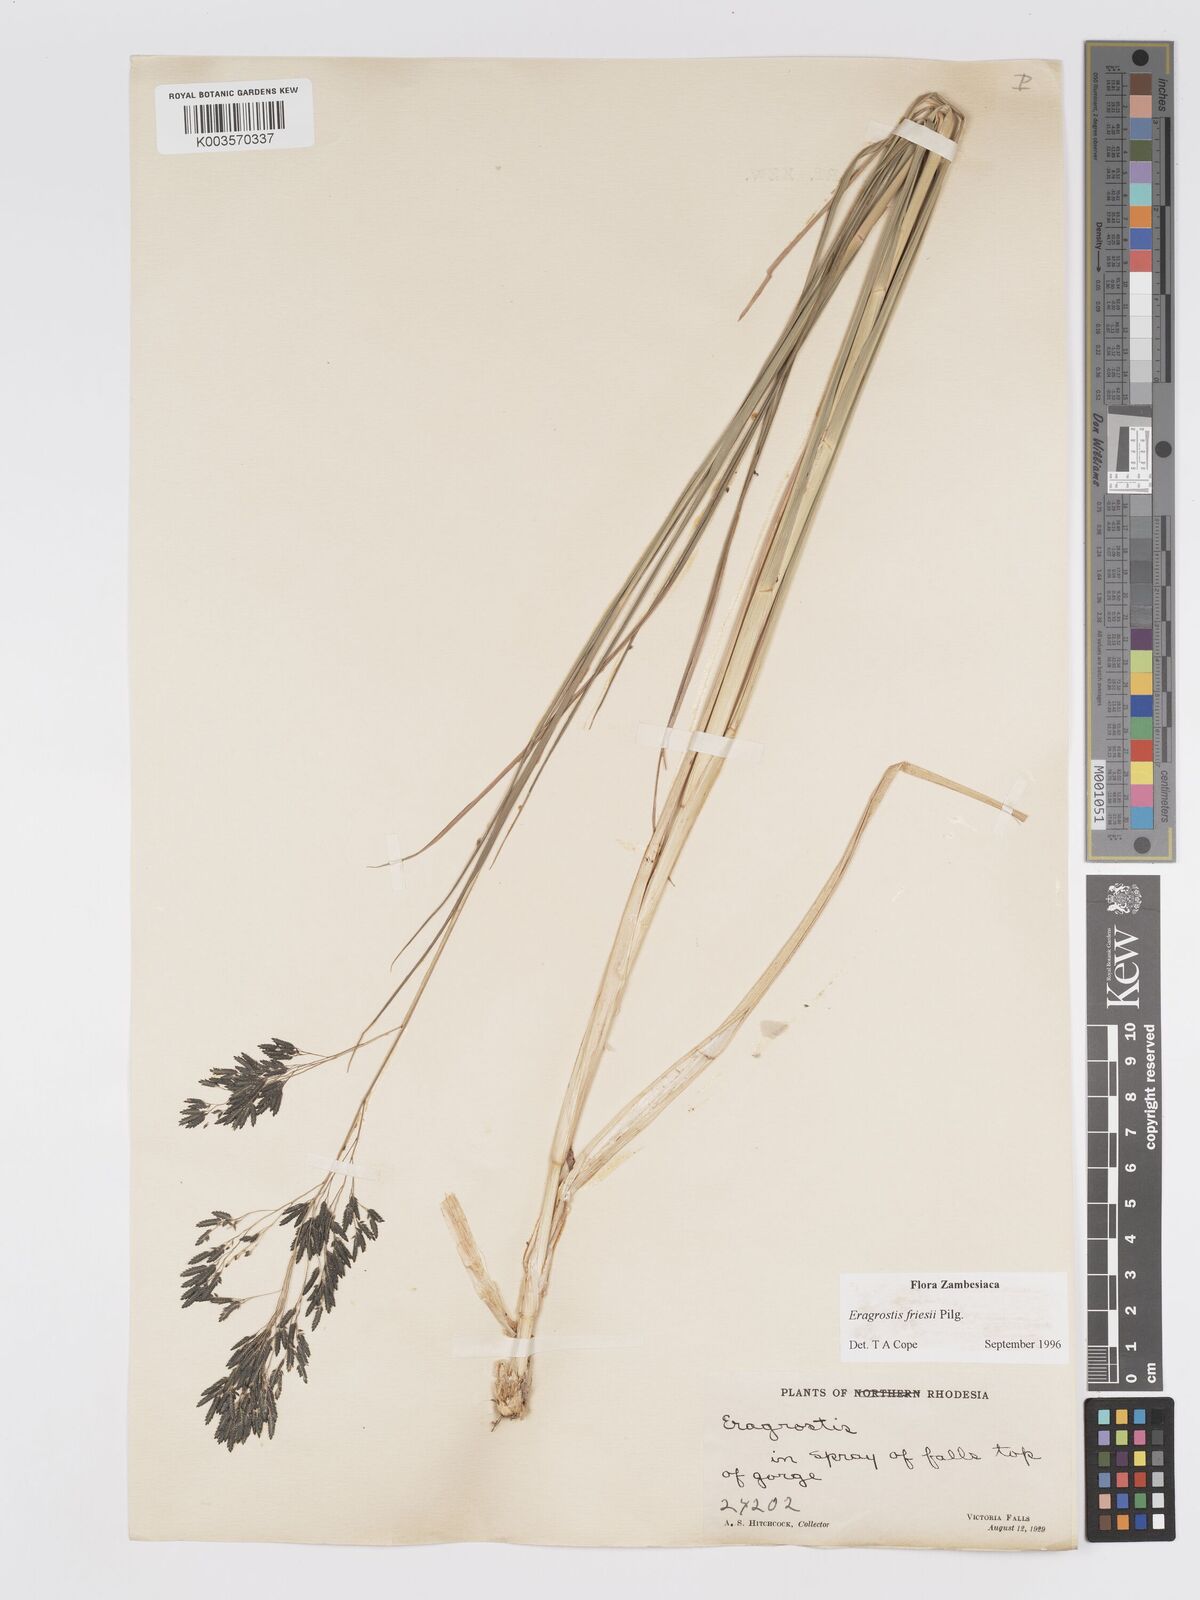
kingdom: Plantae
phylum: Tracheophyta
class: Liliopsida
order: Poales
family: Poaceae
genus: Eragrostis
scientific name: Eragrostis friesii
